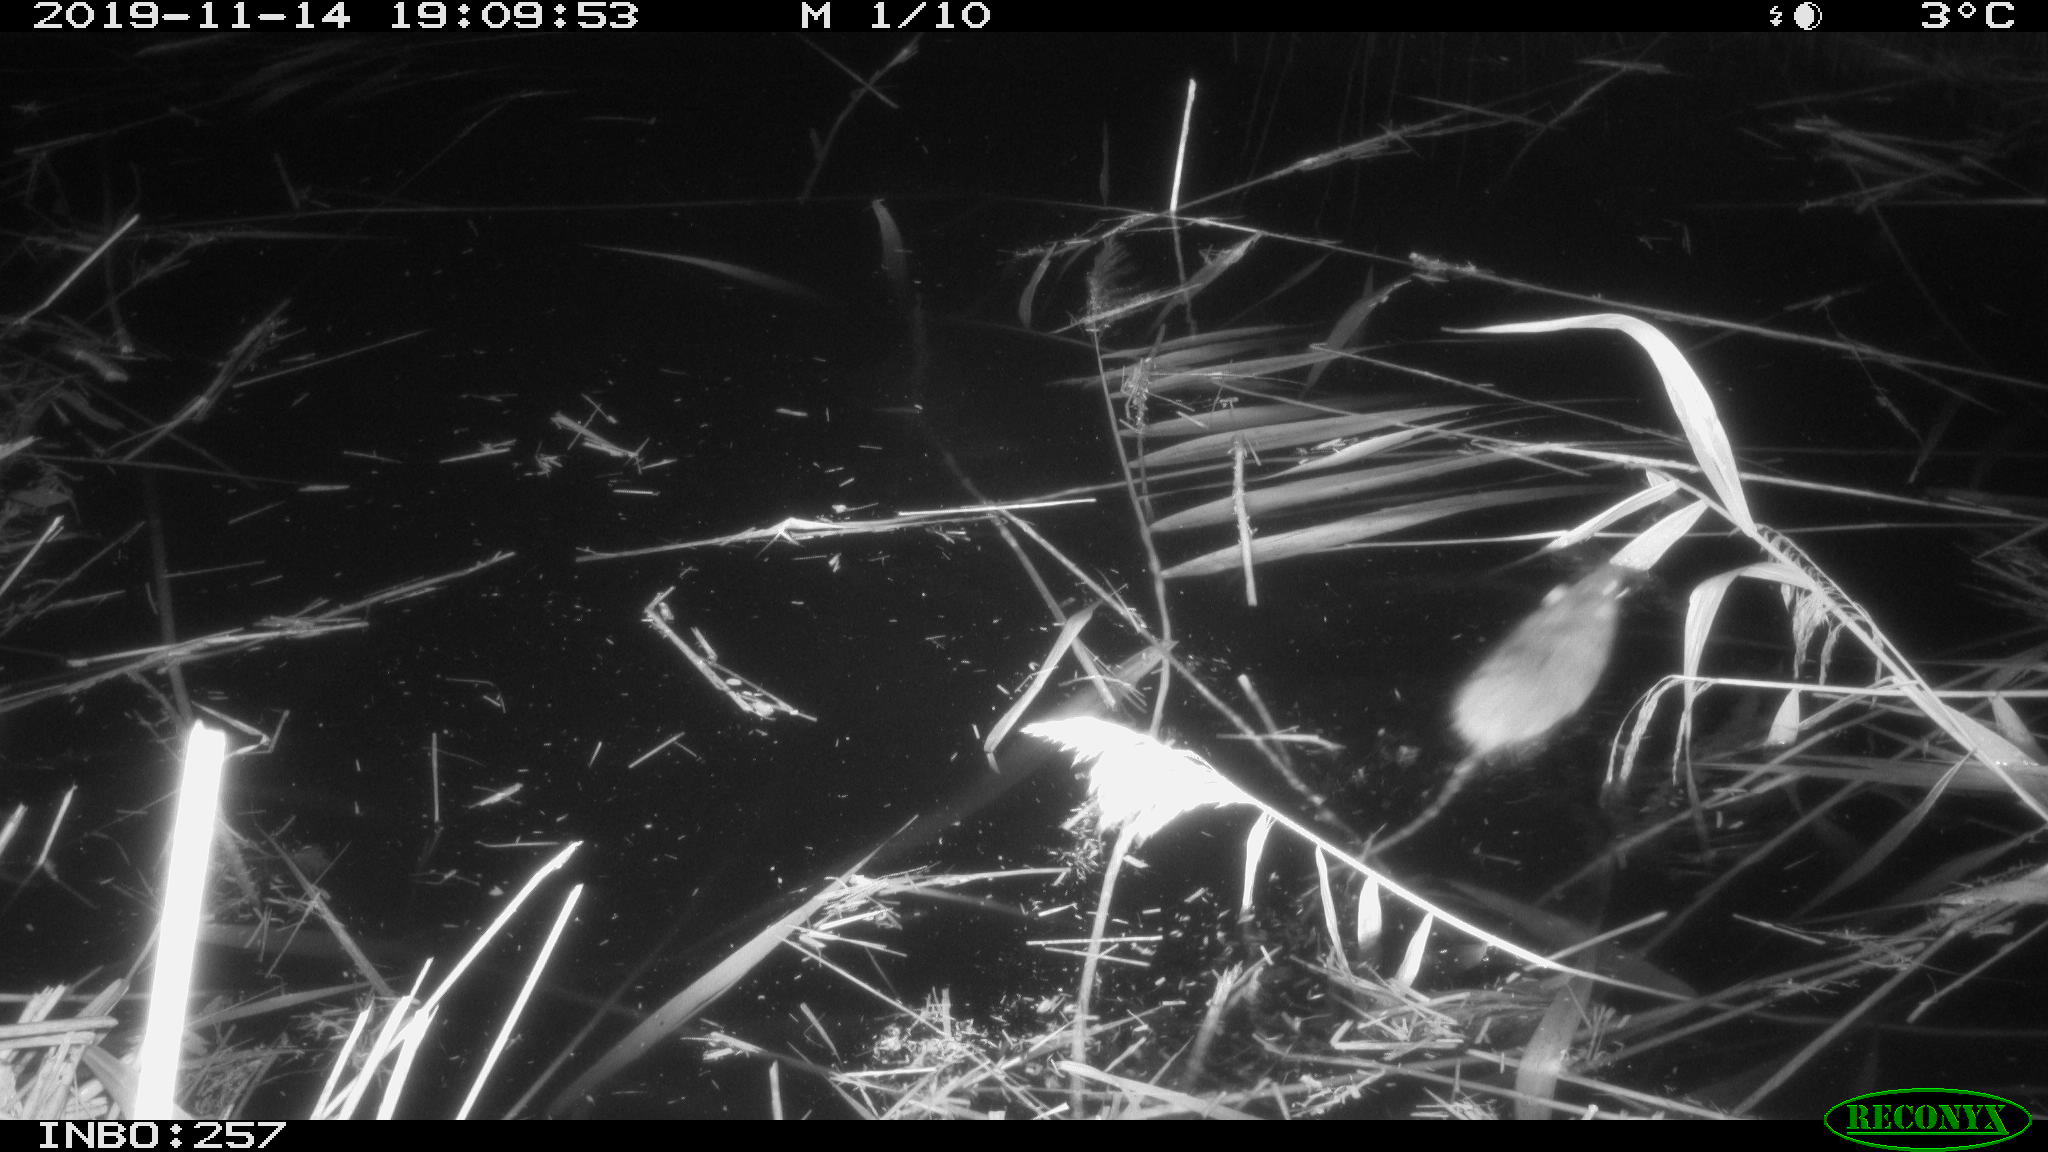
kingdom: Animalia
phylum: Chordata
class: Mammalia
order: Rodentia
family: Muridae
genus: Rattus
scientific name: Rattus norvegicus
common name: Brown rat
